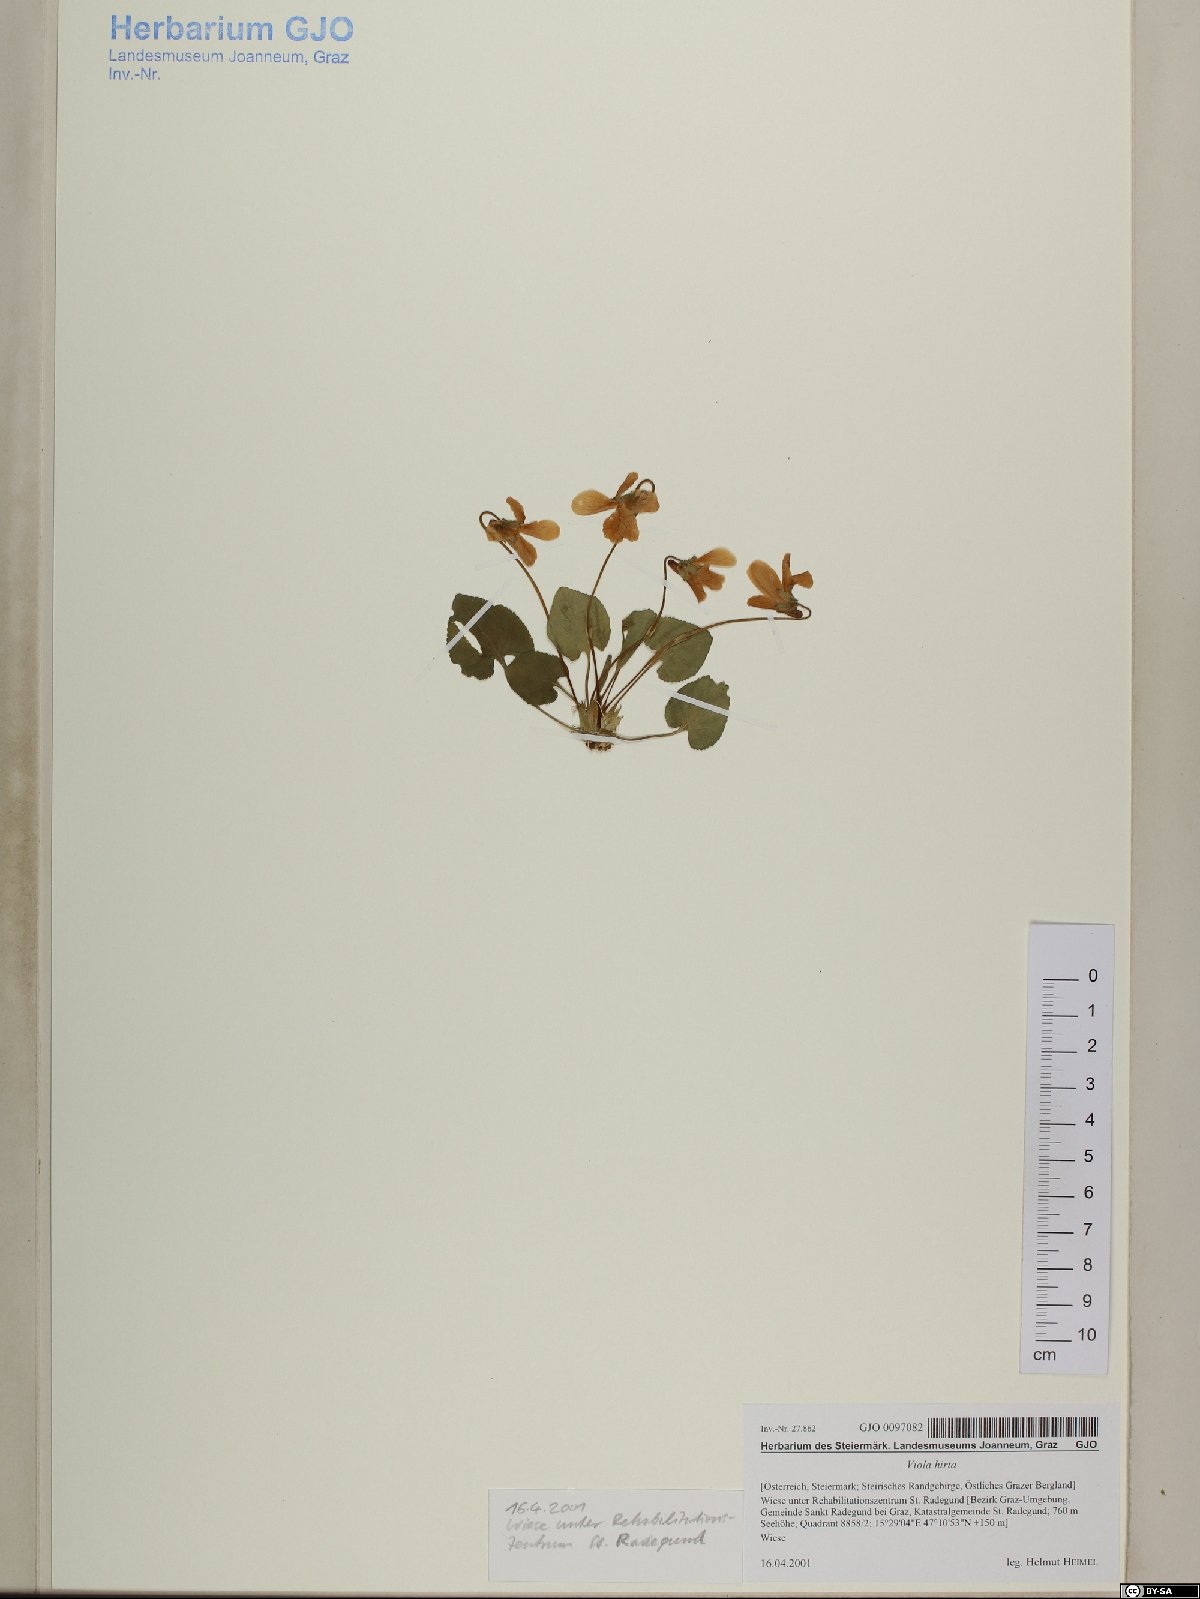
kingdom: Plantae
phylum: Tracheophyta
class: Magnoliopsida
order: Malpighiales
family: Violaceae
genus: Viola
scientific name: Viola hirta
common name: Hairy violet
